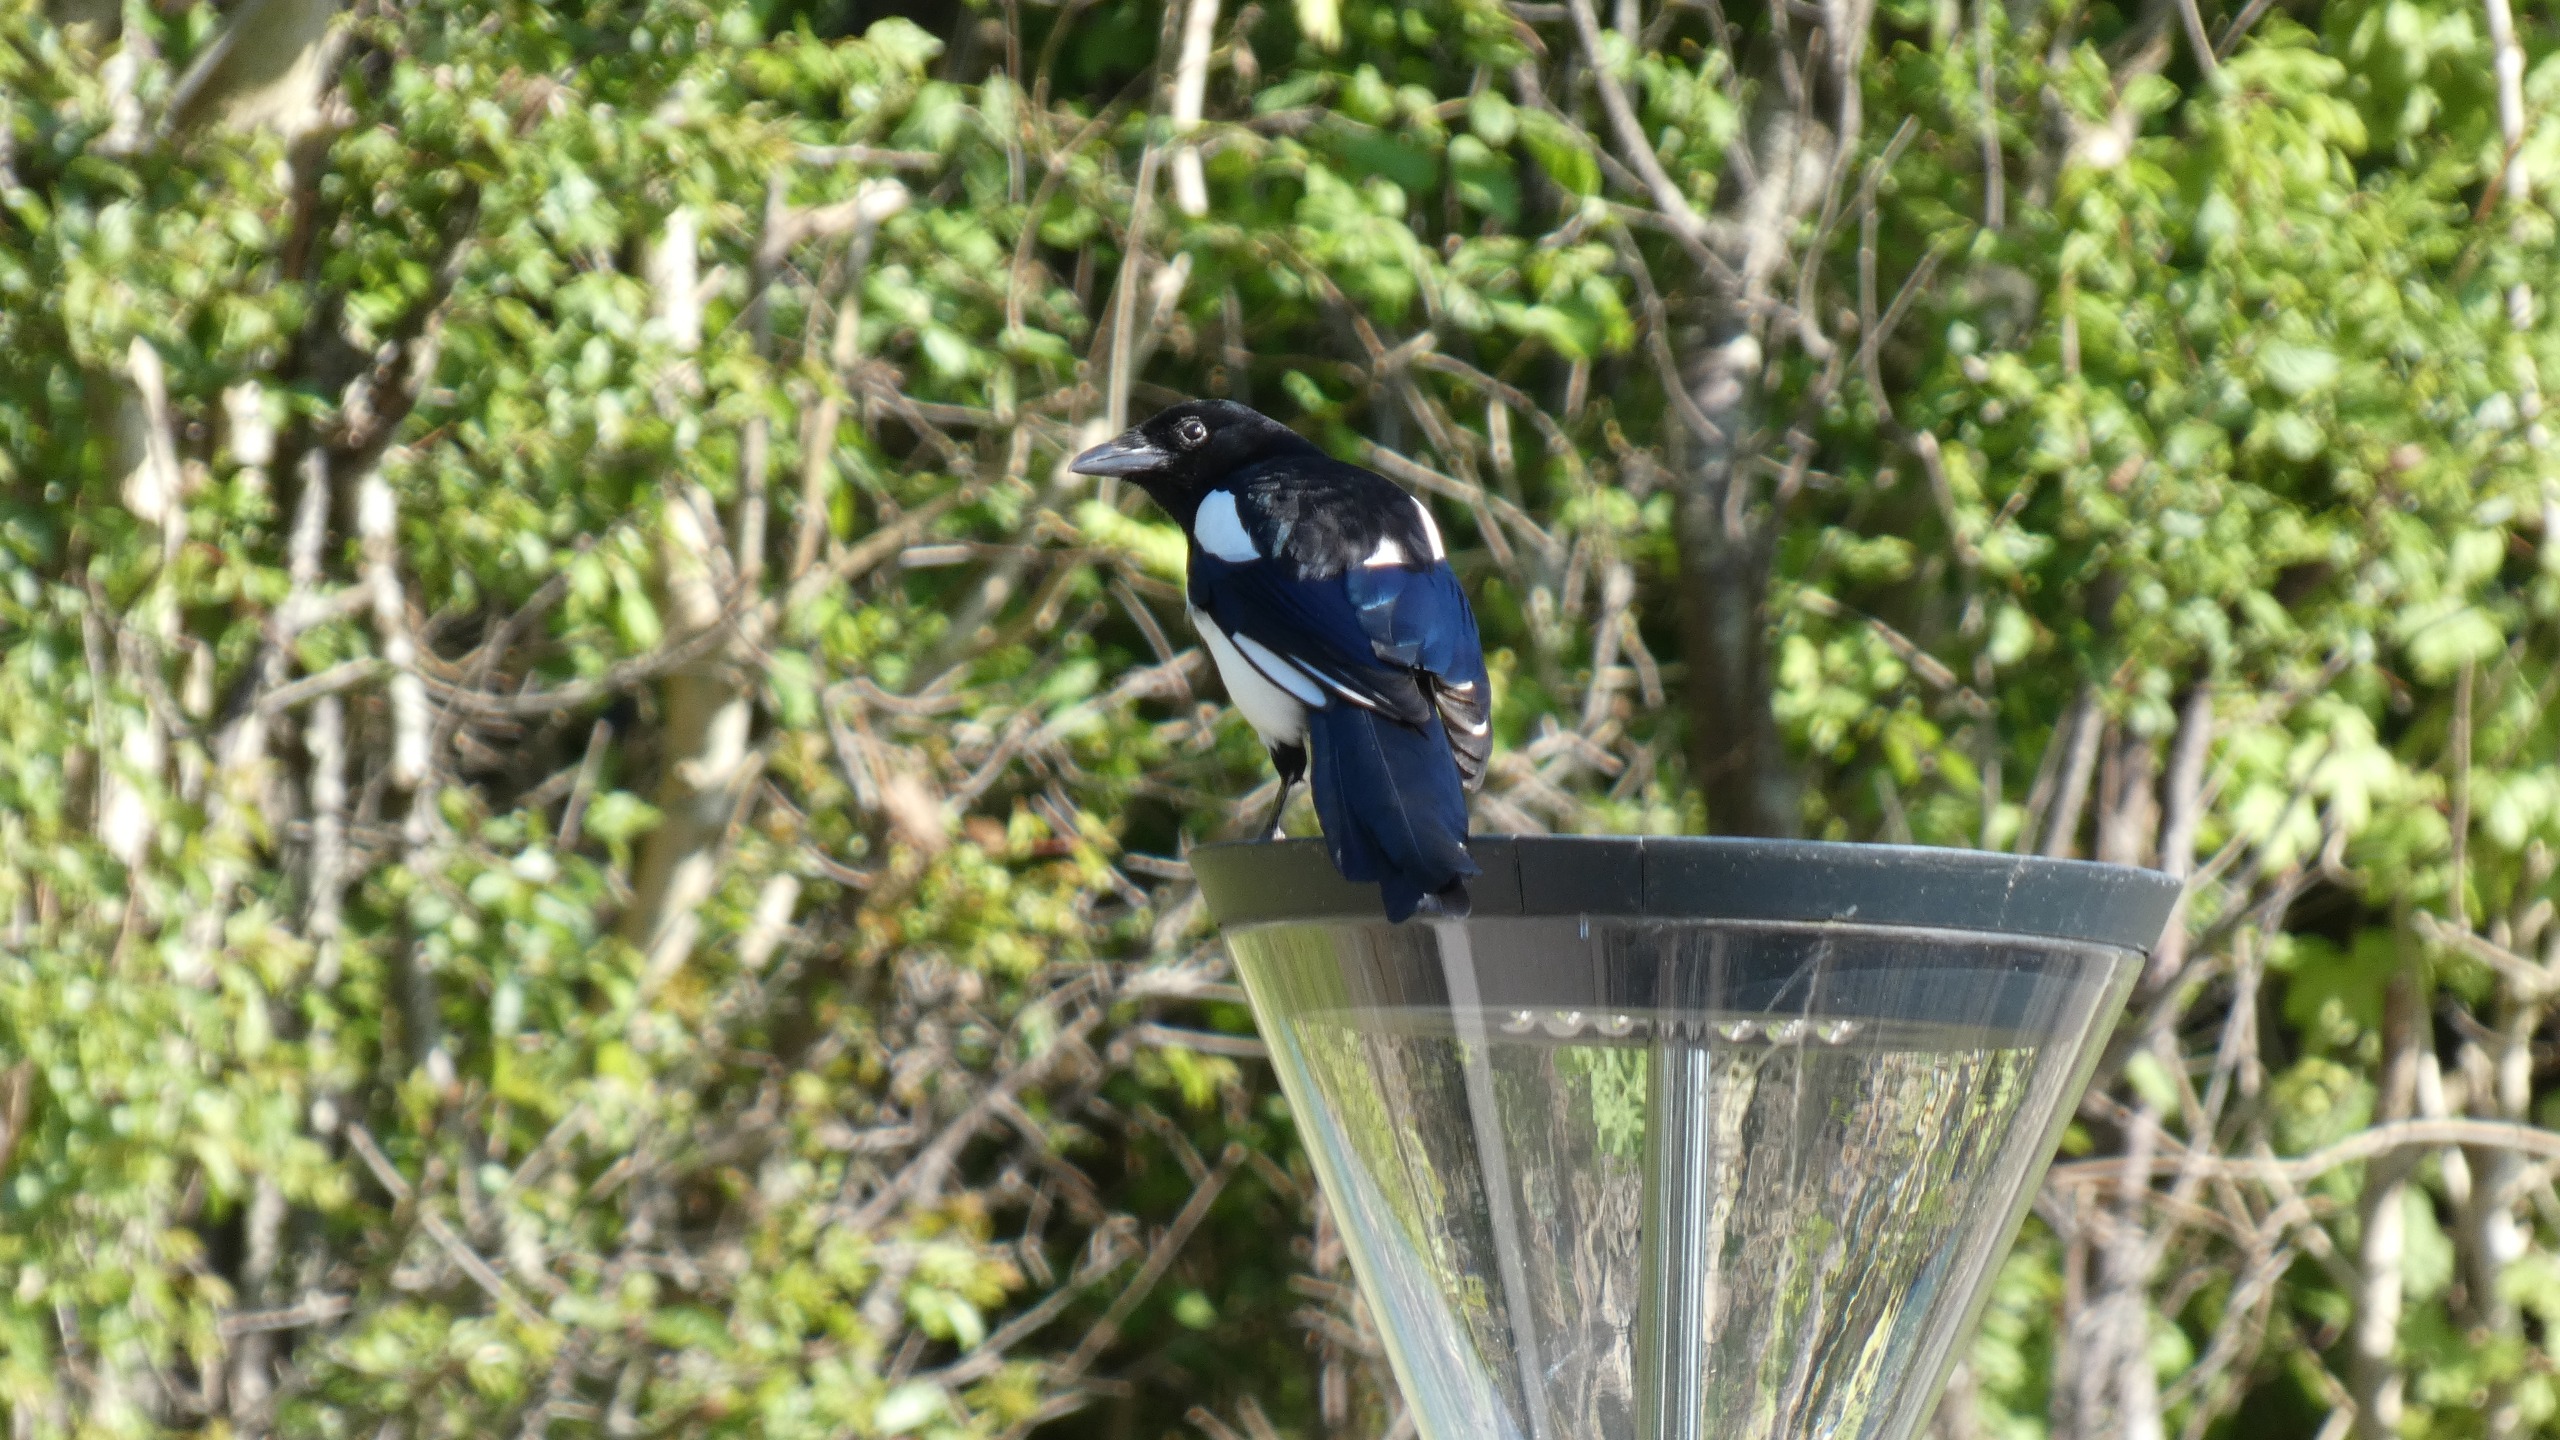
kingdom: Animalia
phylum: Chordata
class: Aves
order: Passeriformes
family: Corvidae
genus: Pica
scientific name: Pica pica
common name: Husskade
